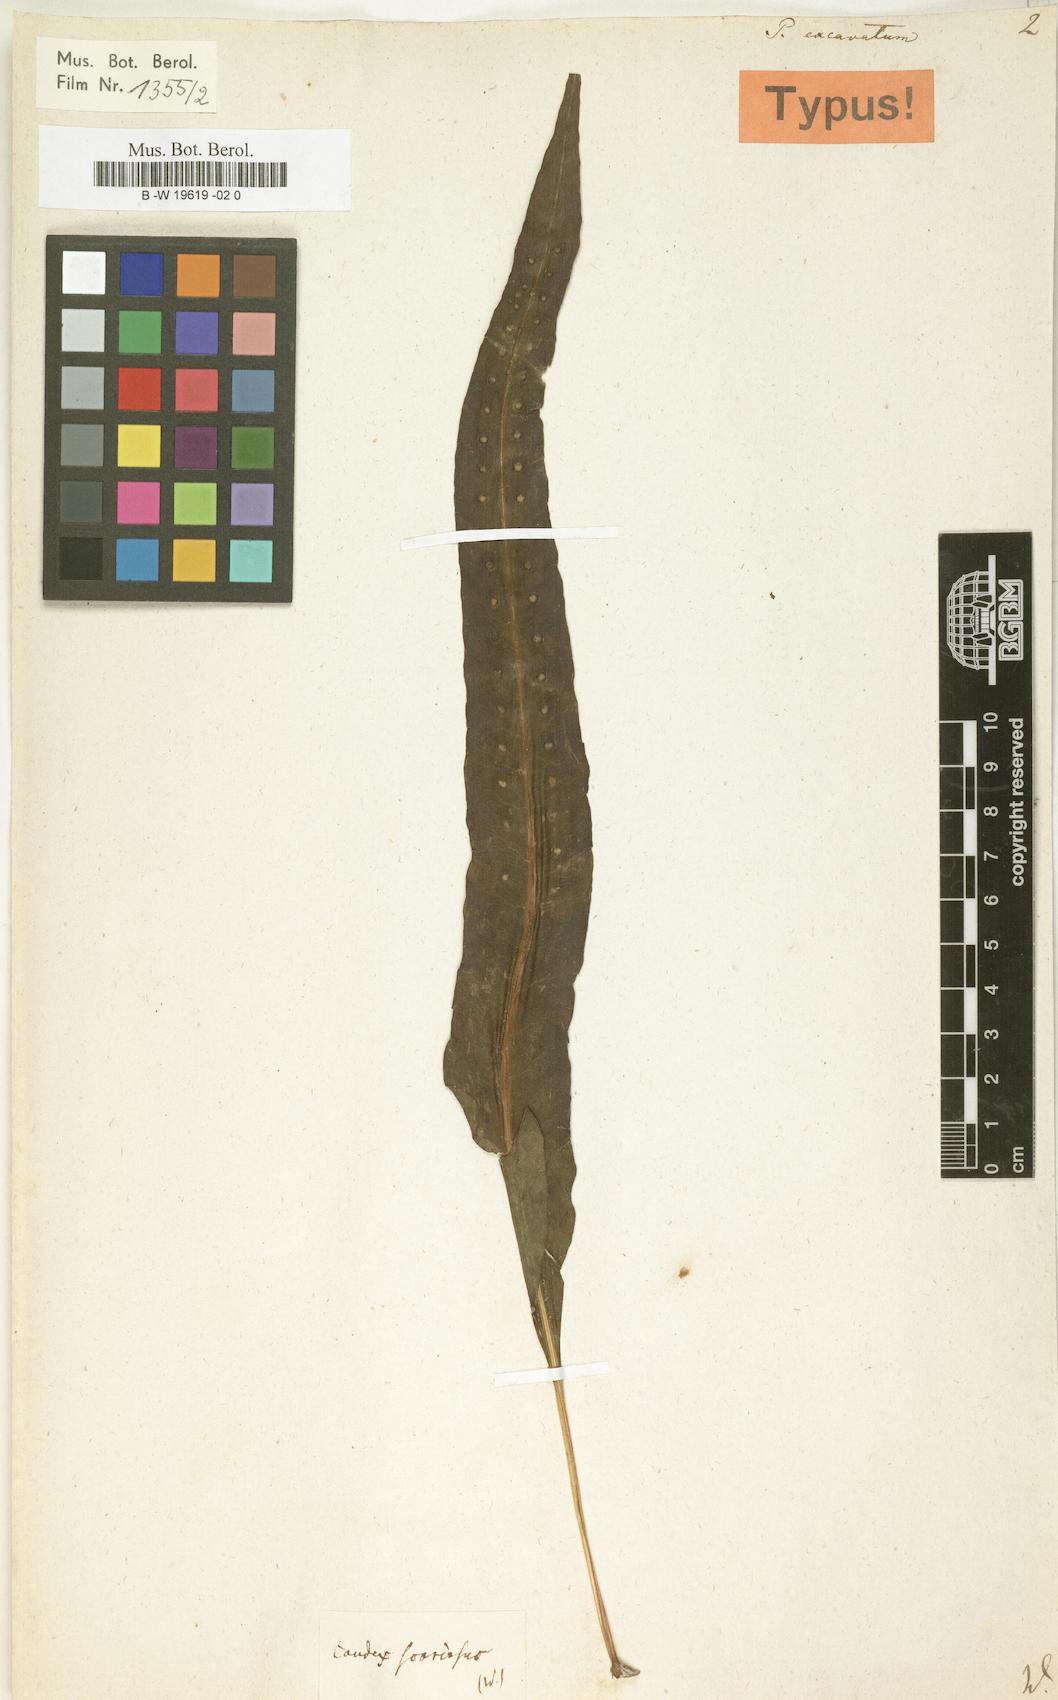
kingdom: Plantae
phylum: Tracheophyta
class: Polypodiopsida
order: Polypodiales
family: Polypodiaceae
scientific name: Polypodiaceae
